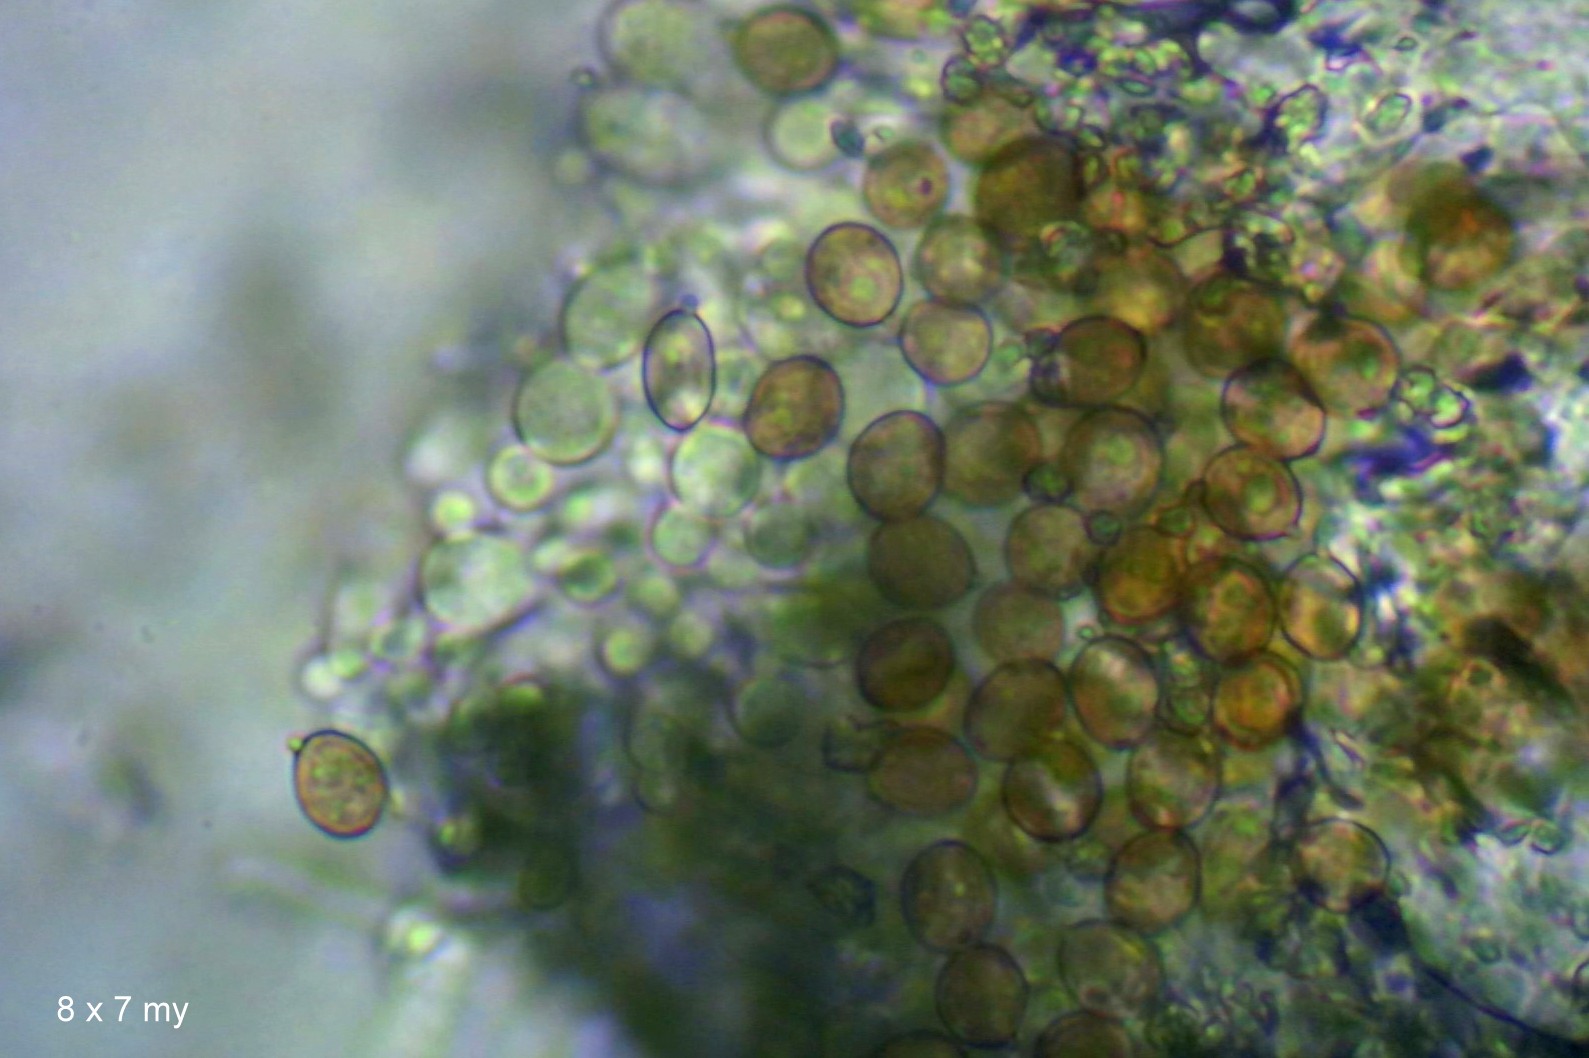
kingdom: Fungi
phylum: Basidiomycota
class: Agaricomycetes
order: Agaricales
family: Chromocyphellaceae
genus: Chromocyphella
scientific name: Chromocyphella muscicola
